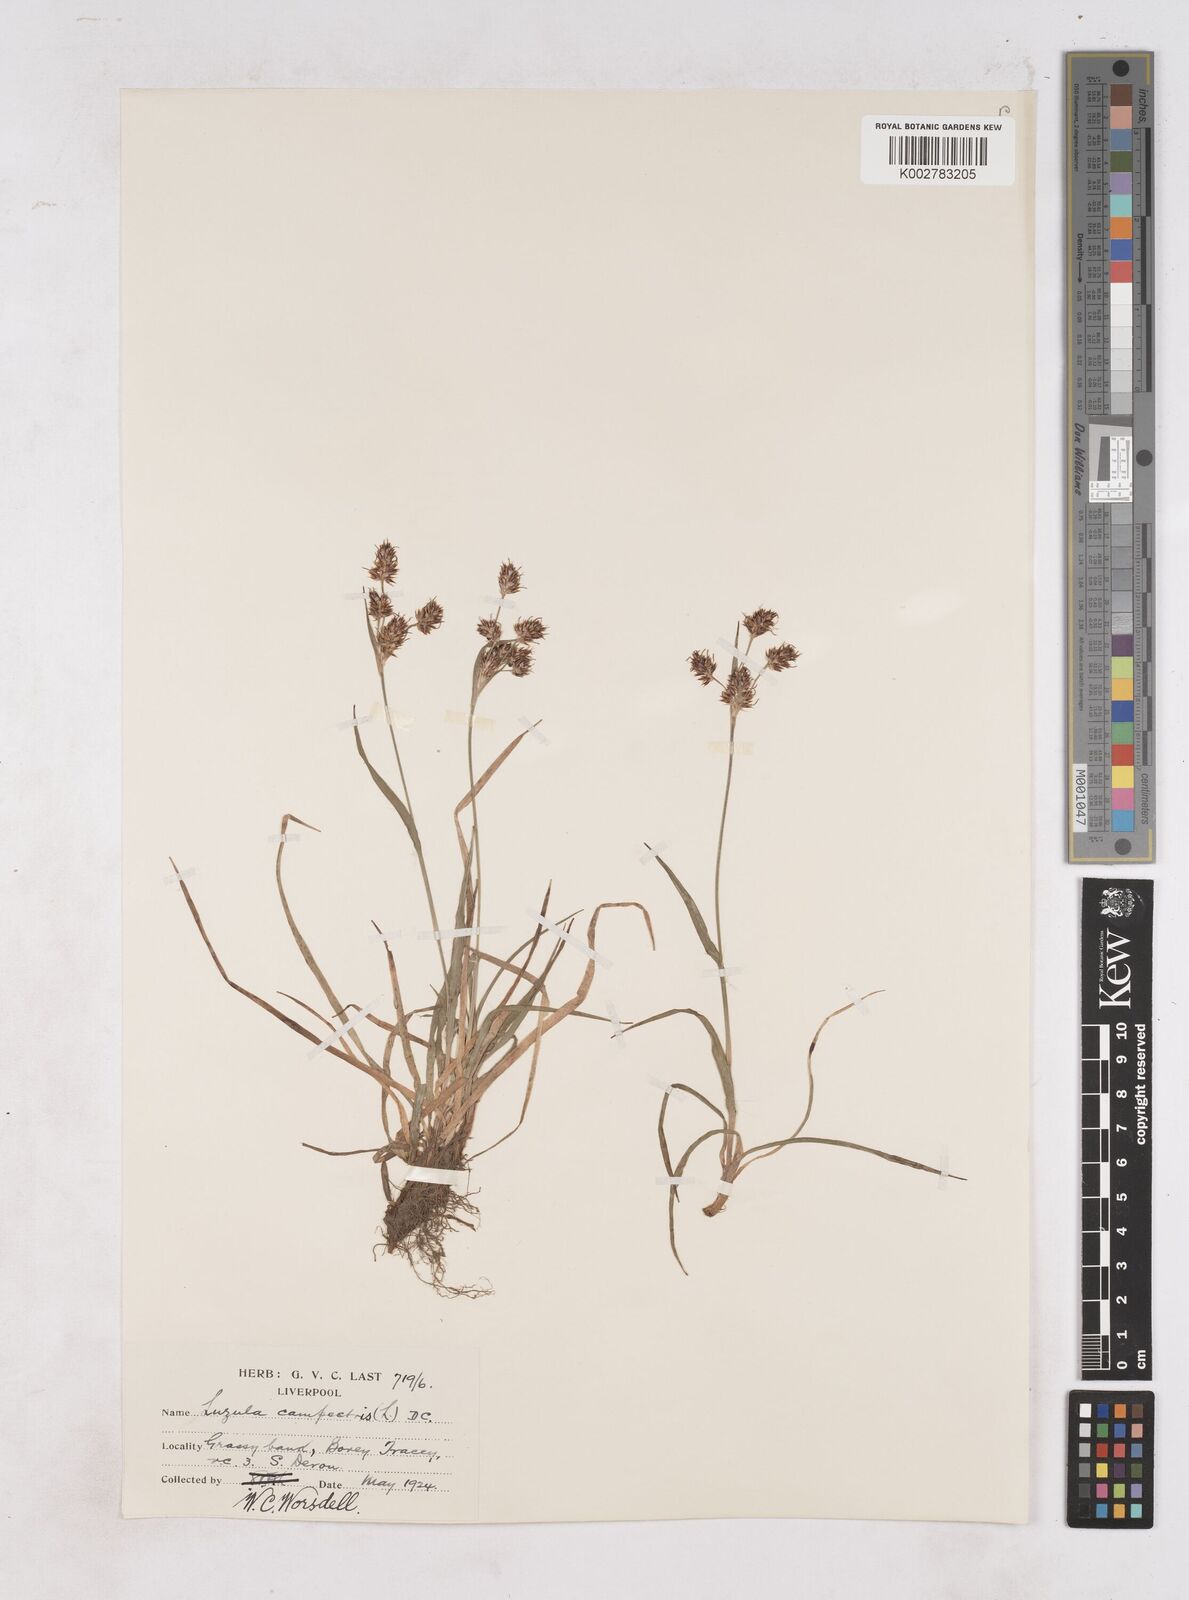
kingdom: Plantae
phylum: Tracheophyta
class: Liliopsida
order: Poales
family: Juncaceae
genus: Luzula
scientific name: Luzula multiflora
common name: Heath wood-rush
